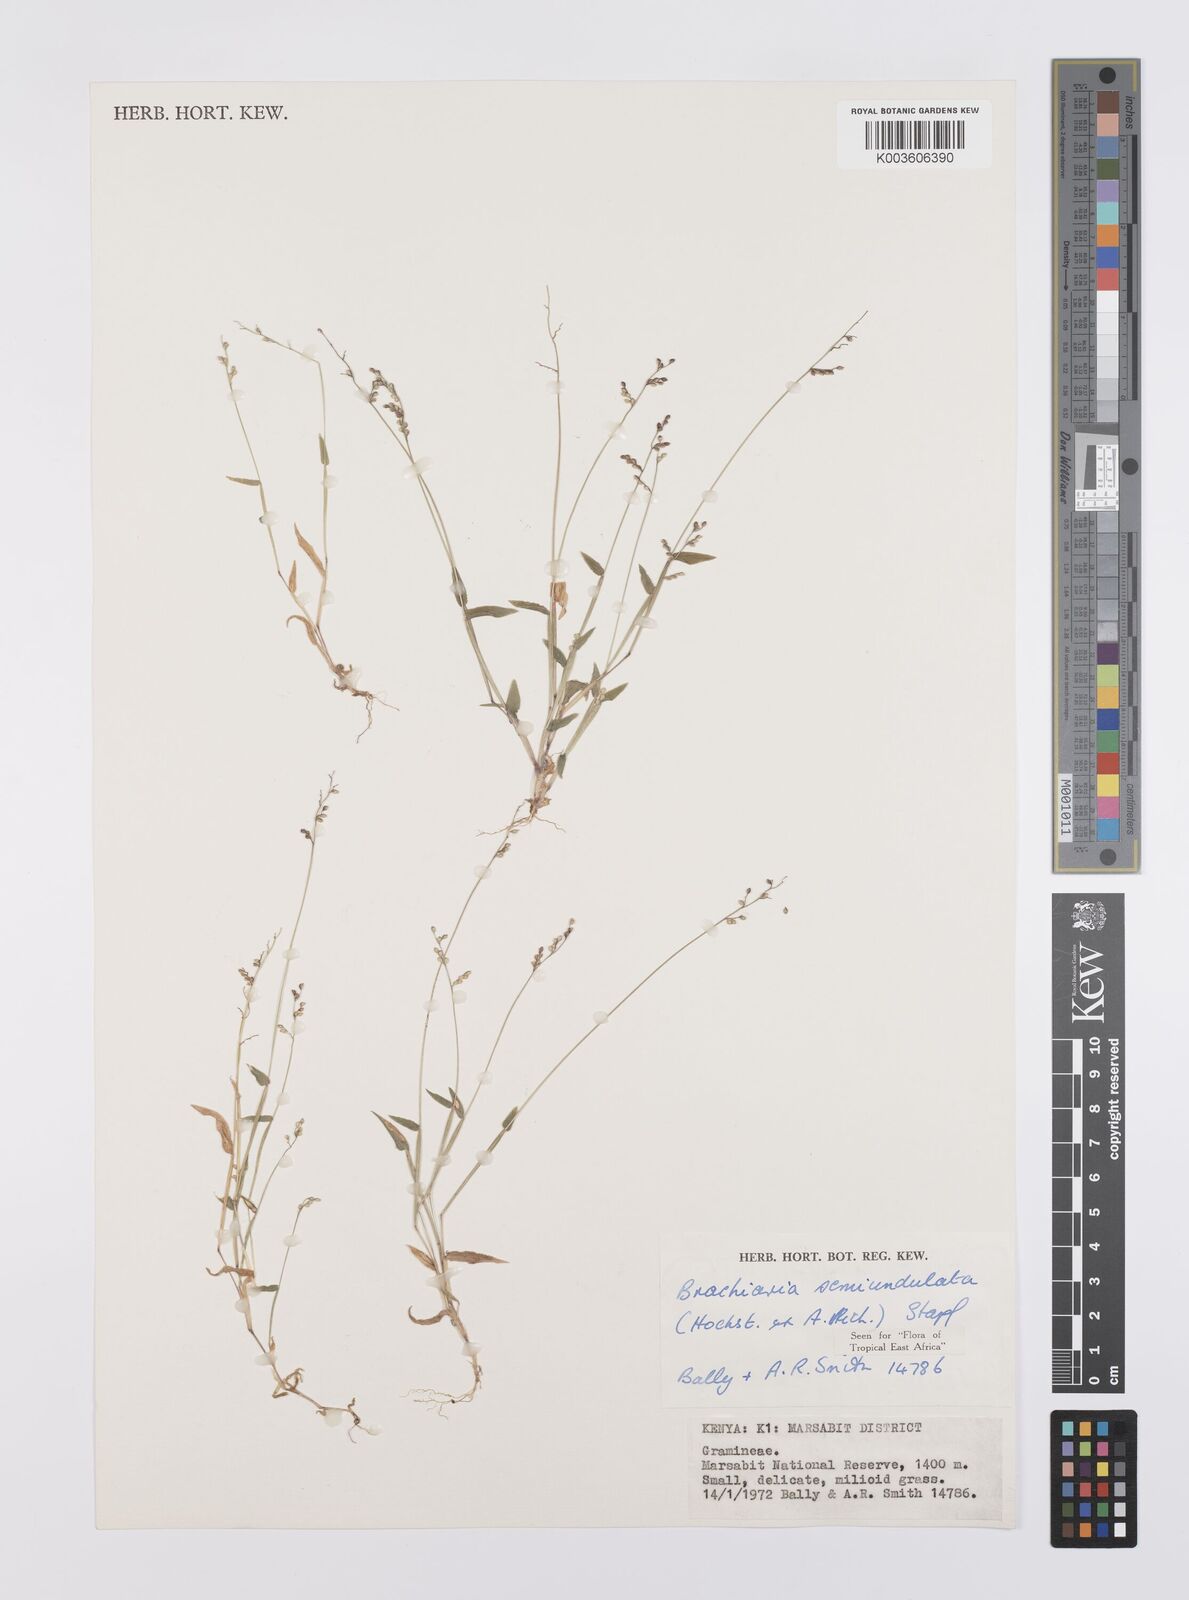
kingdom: Plantae
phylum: Tracheophyta
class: Liliopsida
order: Poales
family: Poaceae
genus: Urochloa
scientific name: Urochloa semiundulata
